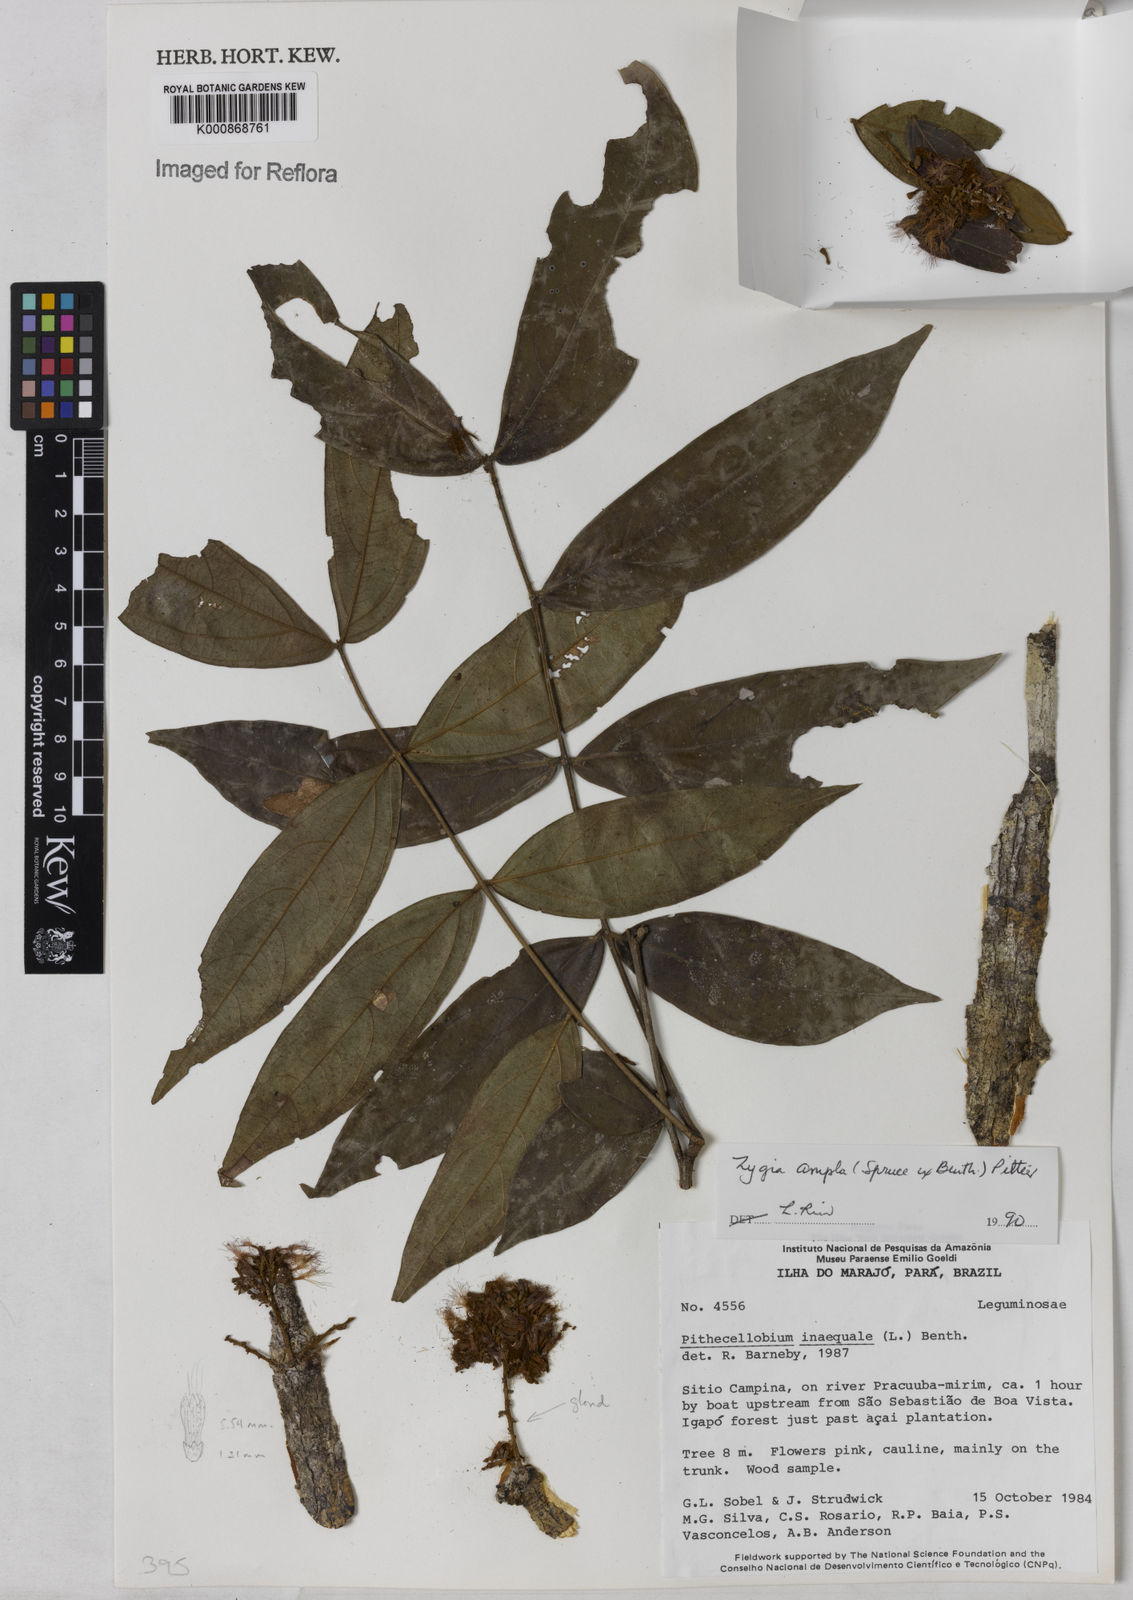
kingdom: Plantae
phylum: Tracheophyta
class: Magnoliopsida
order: Fabales
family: Fabaceae
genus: Zygia
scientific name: Zygia ampla
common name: Jarendeua de sapo
